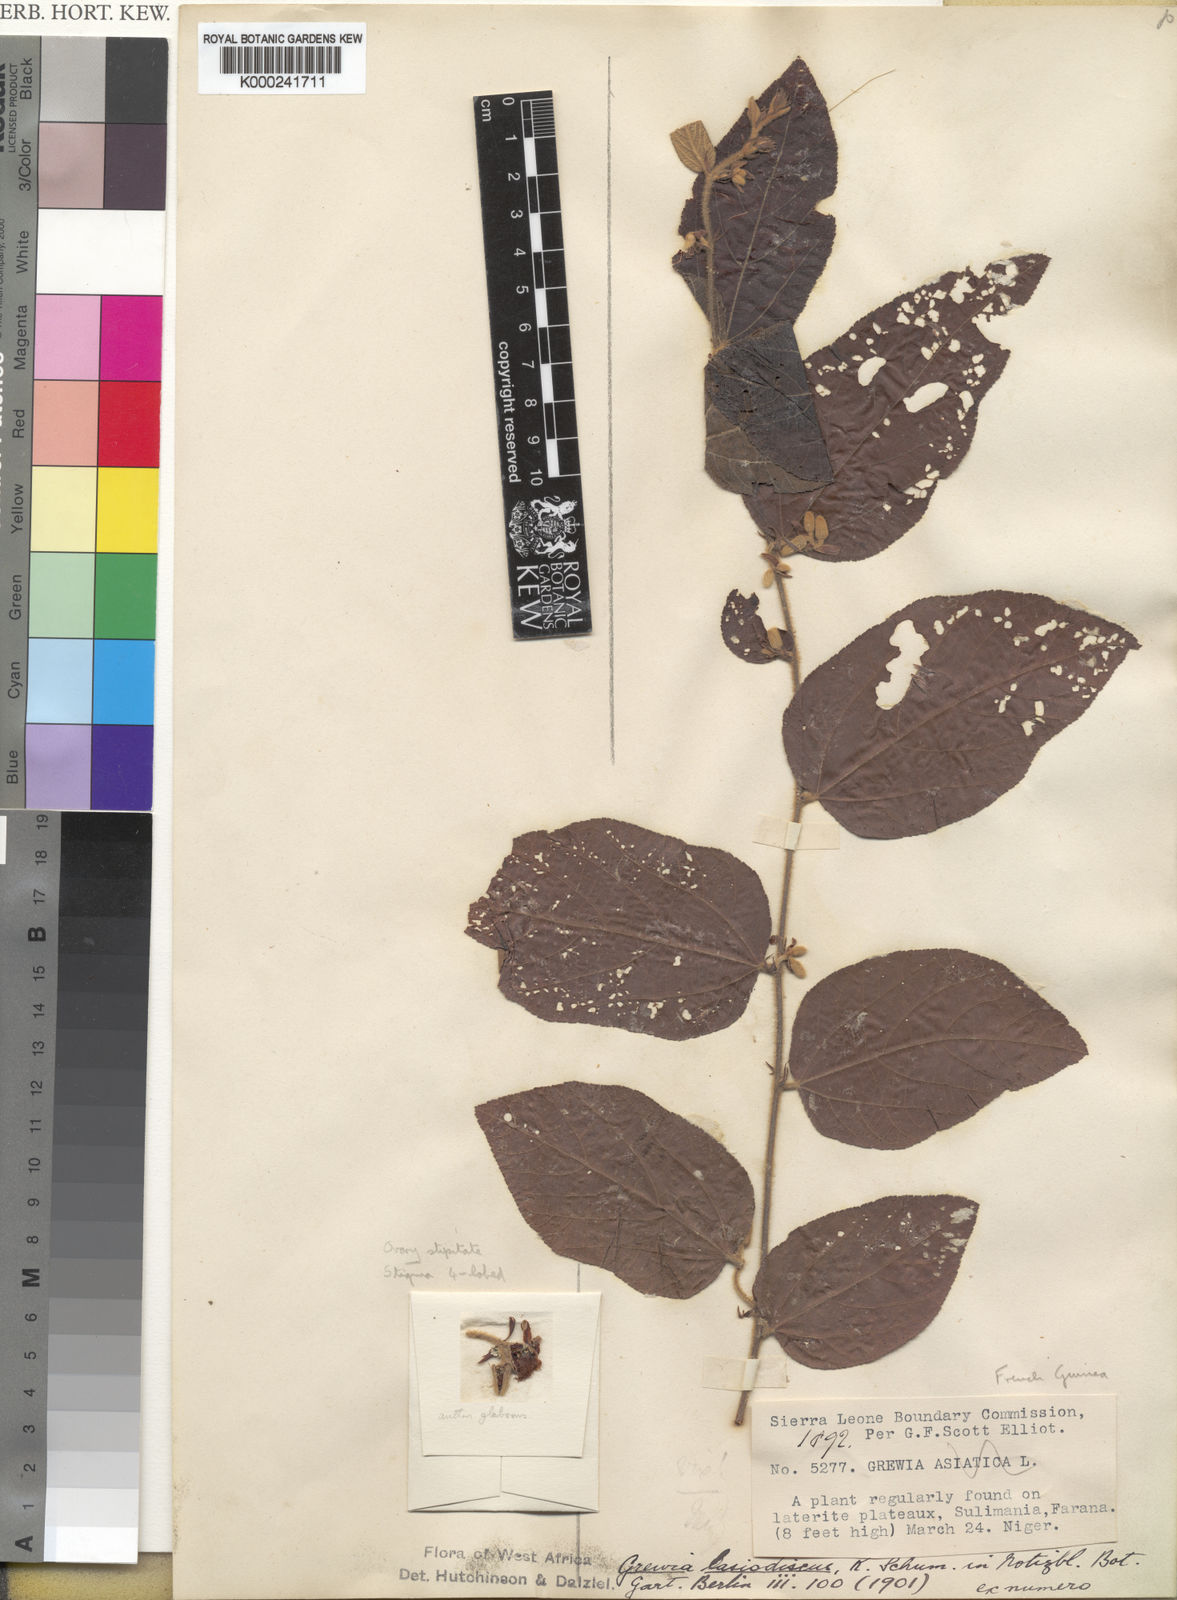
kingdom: Plantae
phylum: Tracheophyta
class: Magnoliopsida
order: Malvales
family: Malvaceae
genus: Grewia
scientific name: Grewia lasiodiscus
